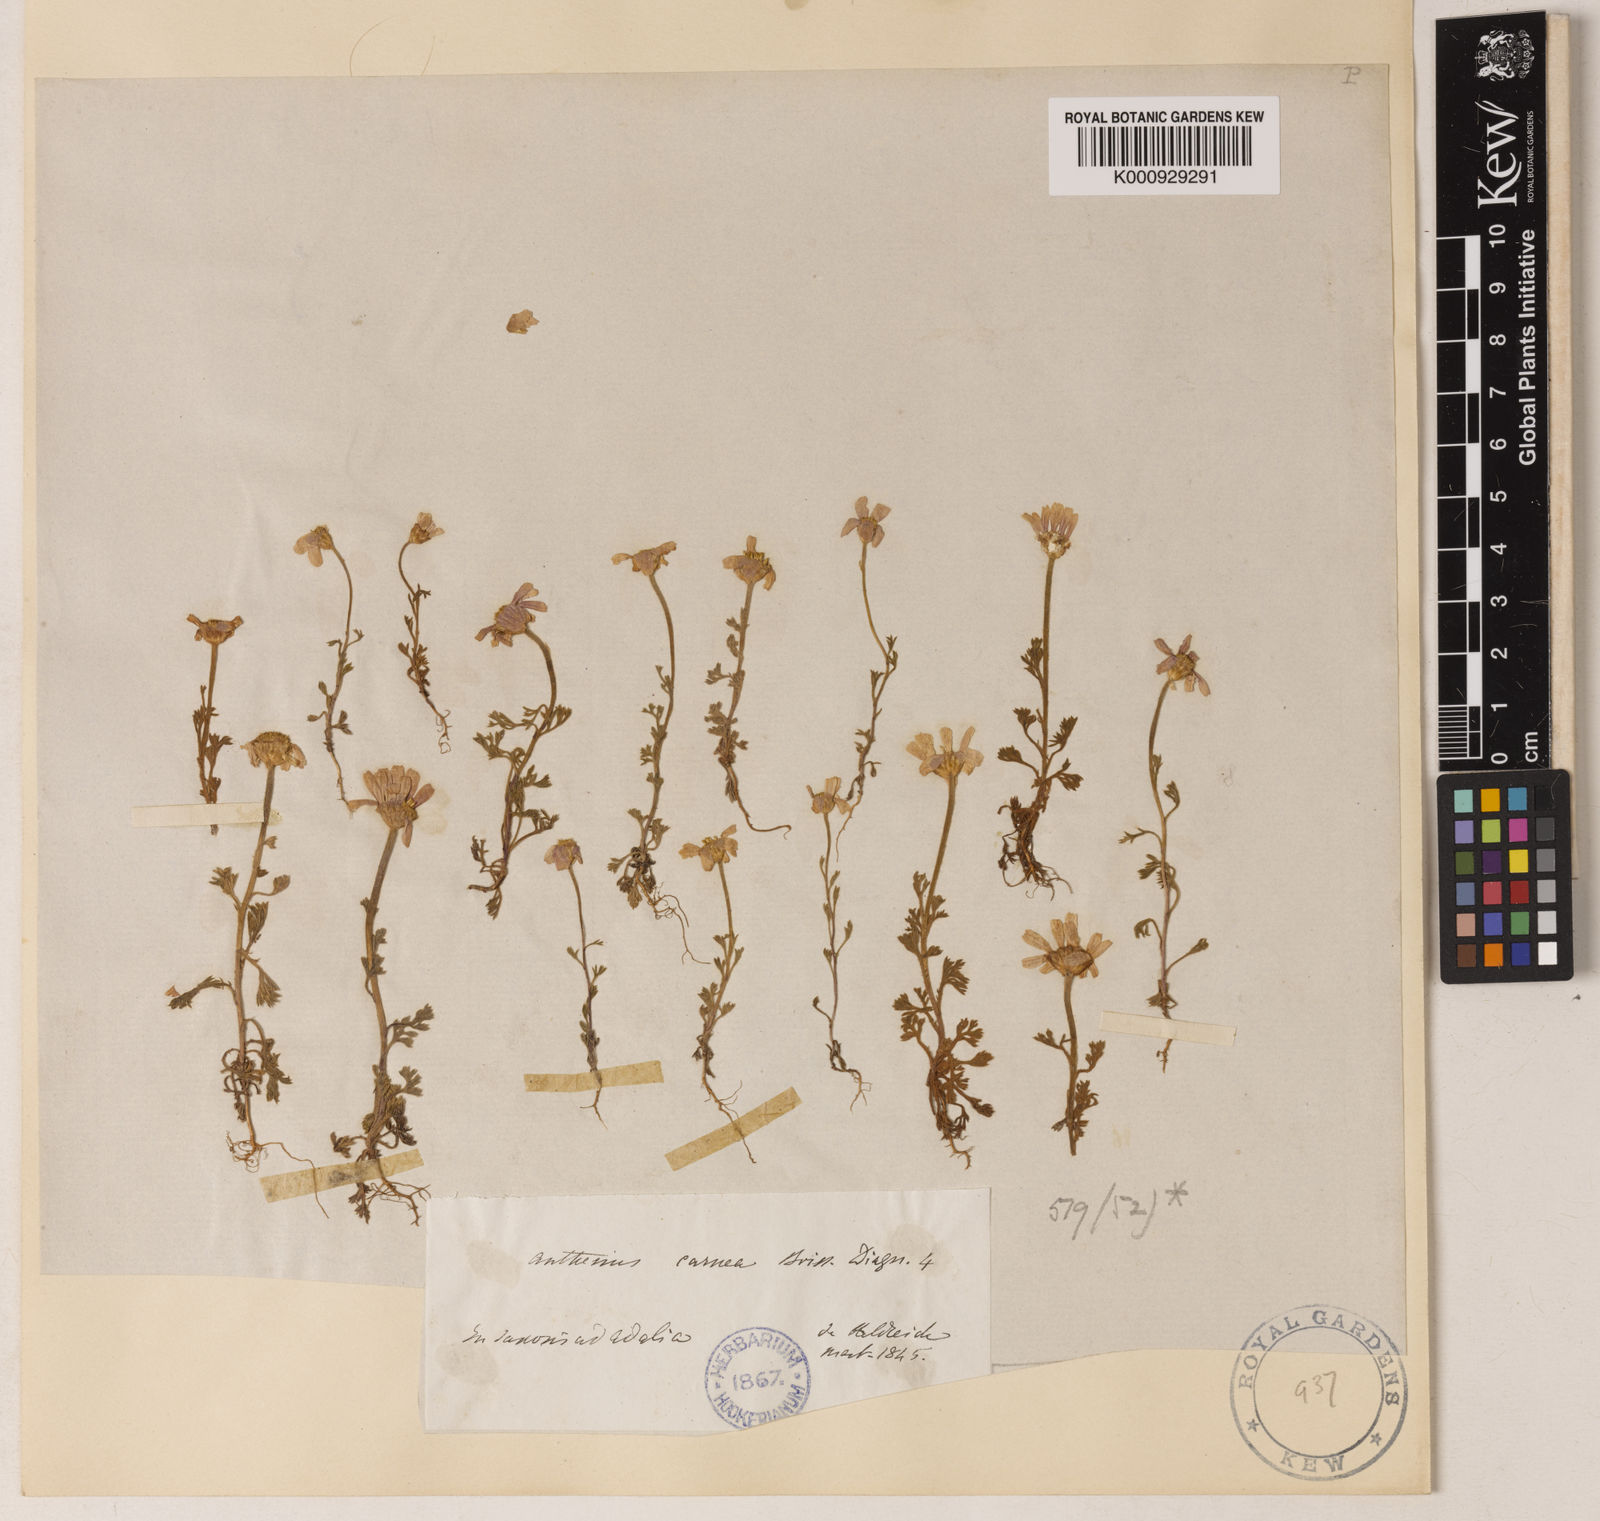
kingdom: Plantae
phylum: Tracheophyta
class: Magnoliopsida
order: Asterales
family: Asteraceae
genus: Anthemis
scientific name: Anthemis rosea
